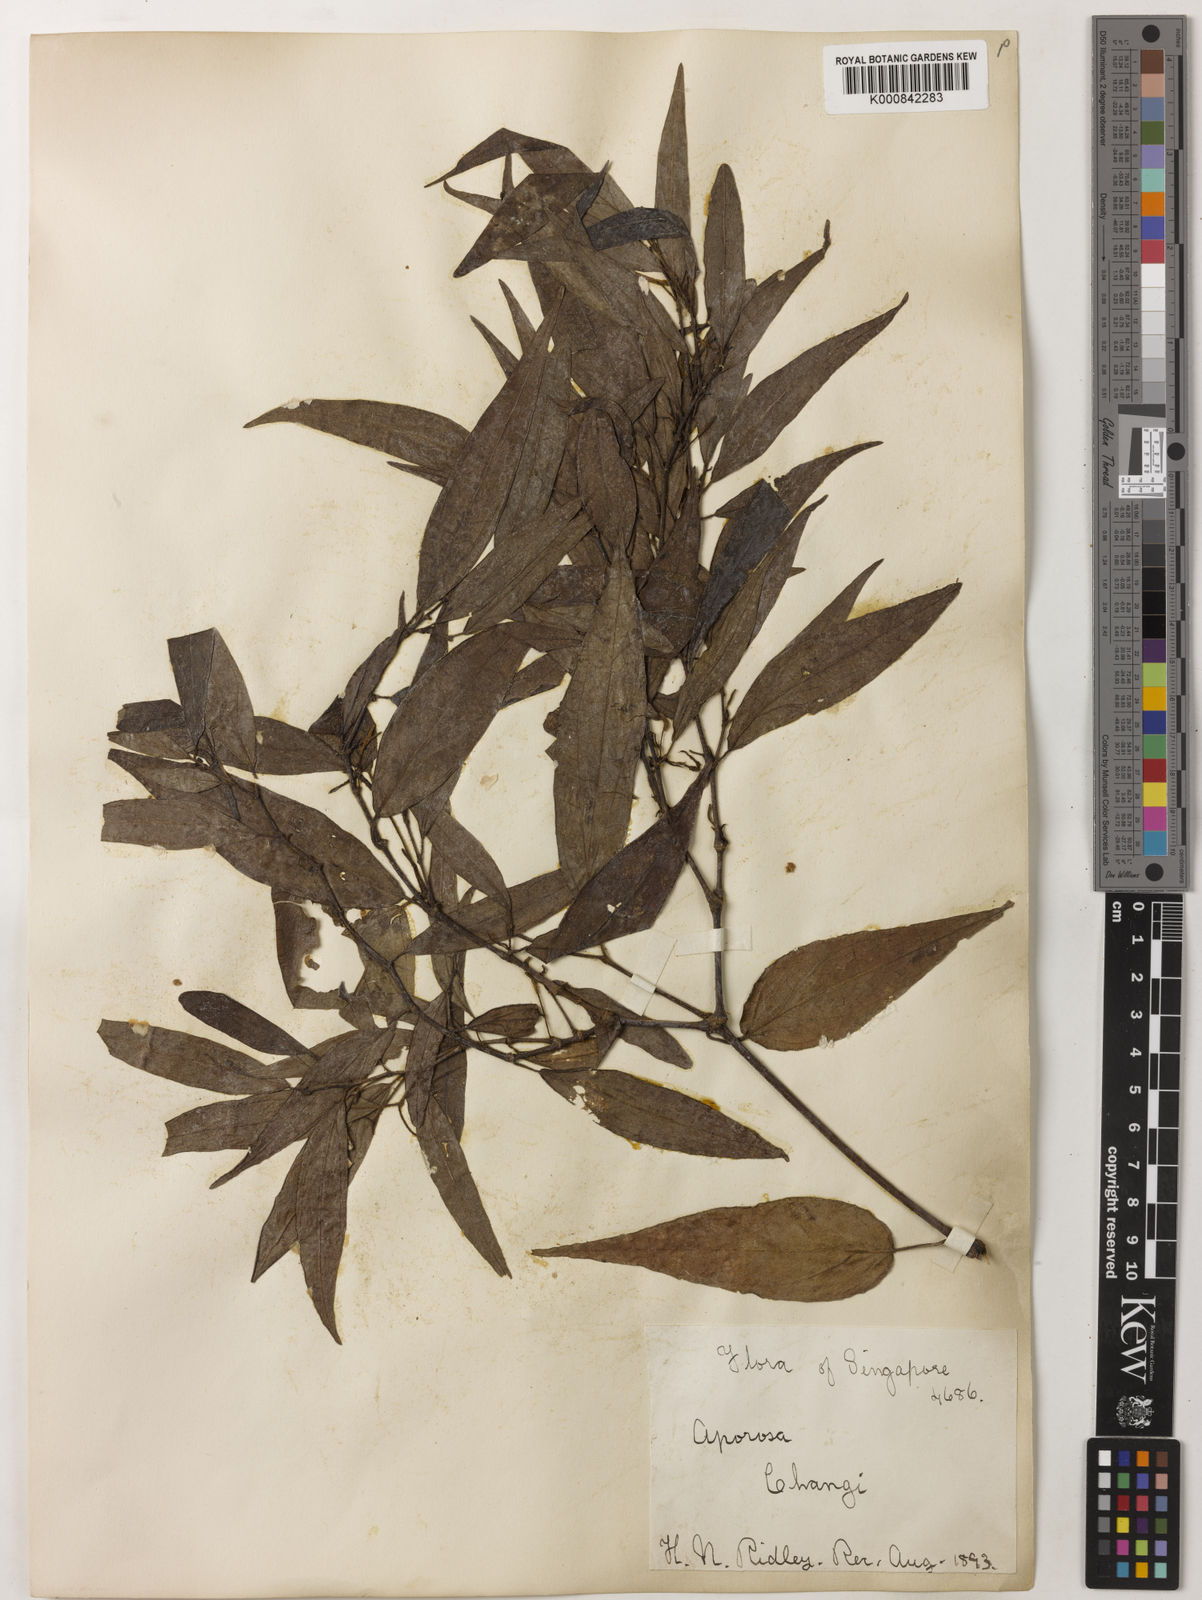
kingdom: Plantae
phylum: Tracheophyta
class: Magnoliopsida
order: Piperales
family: Piperaceae
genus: Piper
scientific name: Piper lanatum
